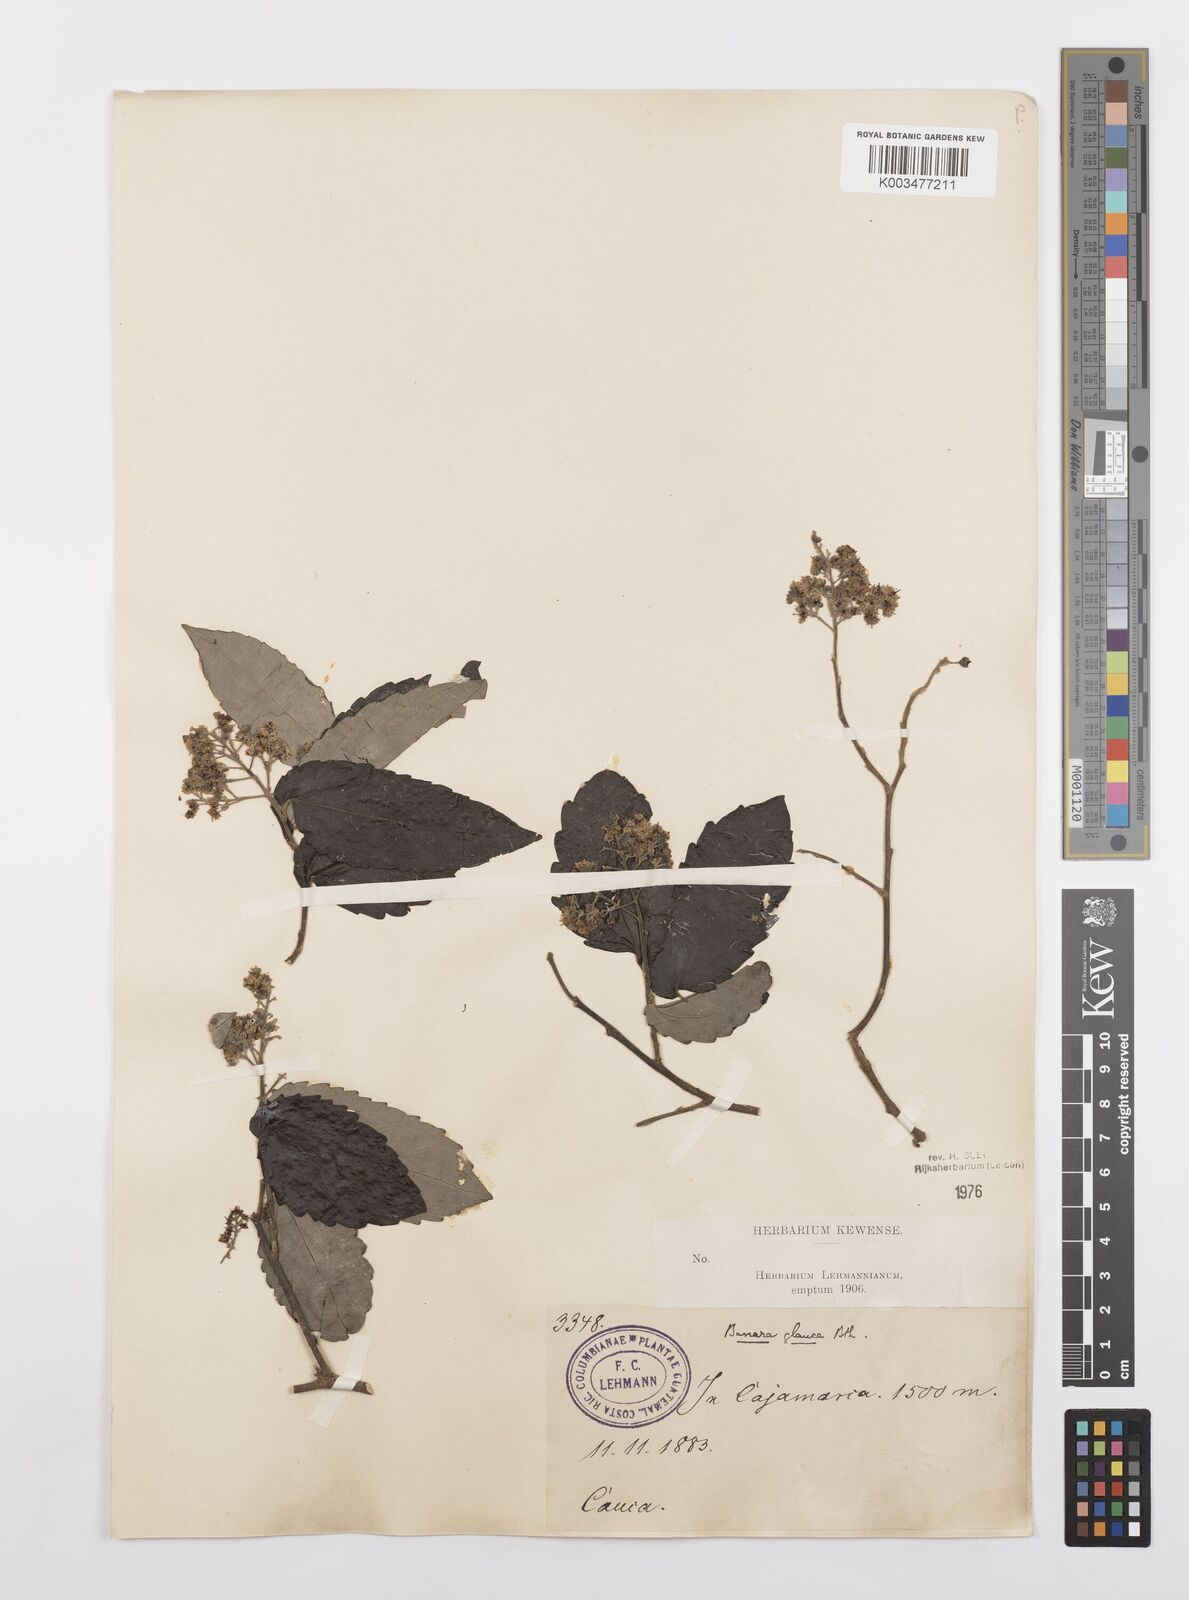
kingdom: Plantae
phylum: Tracheophyta
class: Magnoliopsida
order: Malpighiales
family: Salicaceae
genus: Banara
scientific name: Banara glauca
